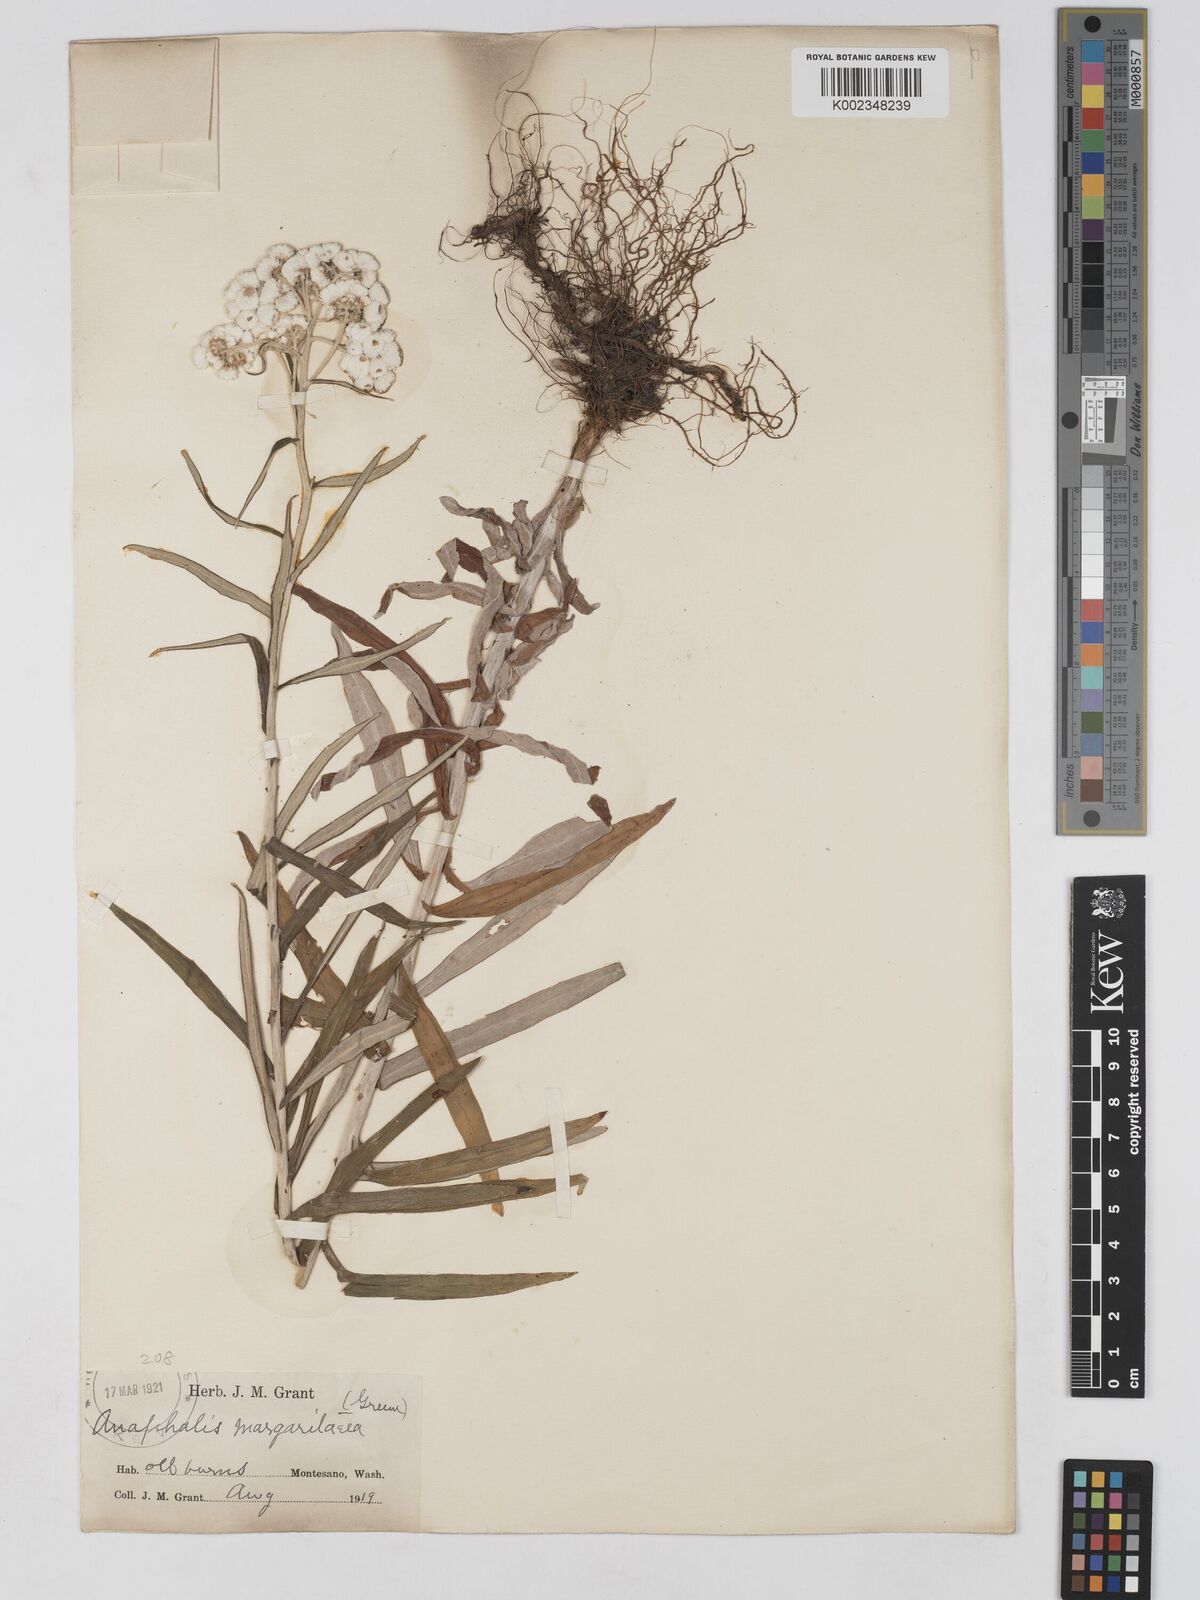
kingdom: Plantae
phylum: Tracheophyta
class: Magnoliopsida
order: Asterales
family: Asteraceae
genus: Anaphalis
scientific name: Anaphalis margaritacea
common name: Pearly everlasting
